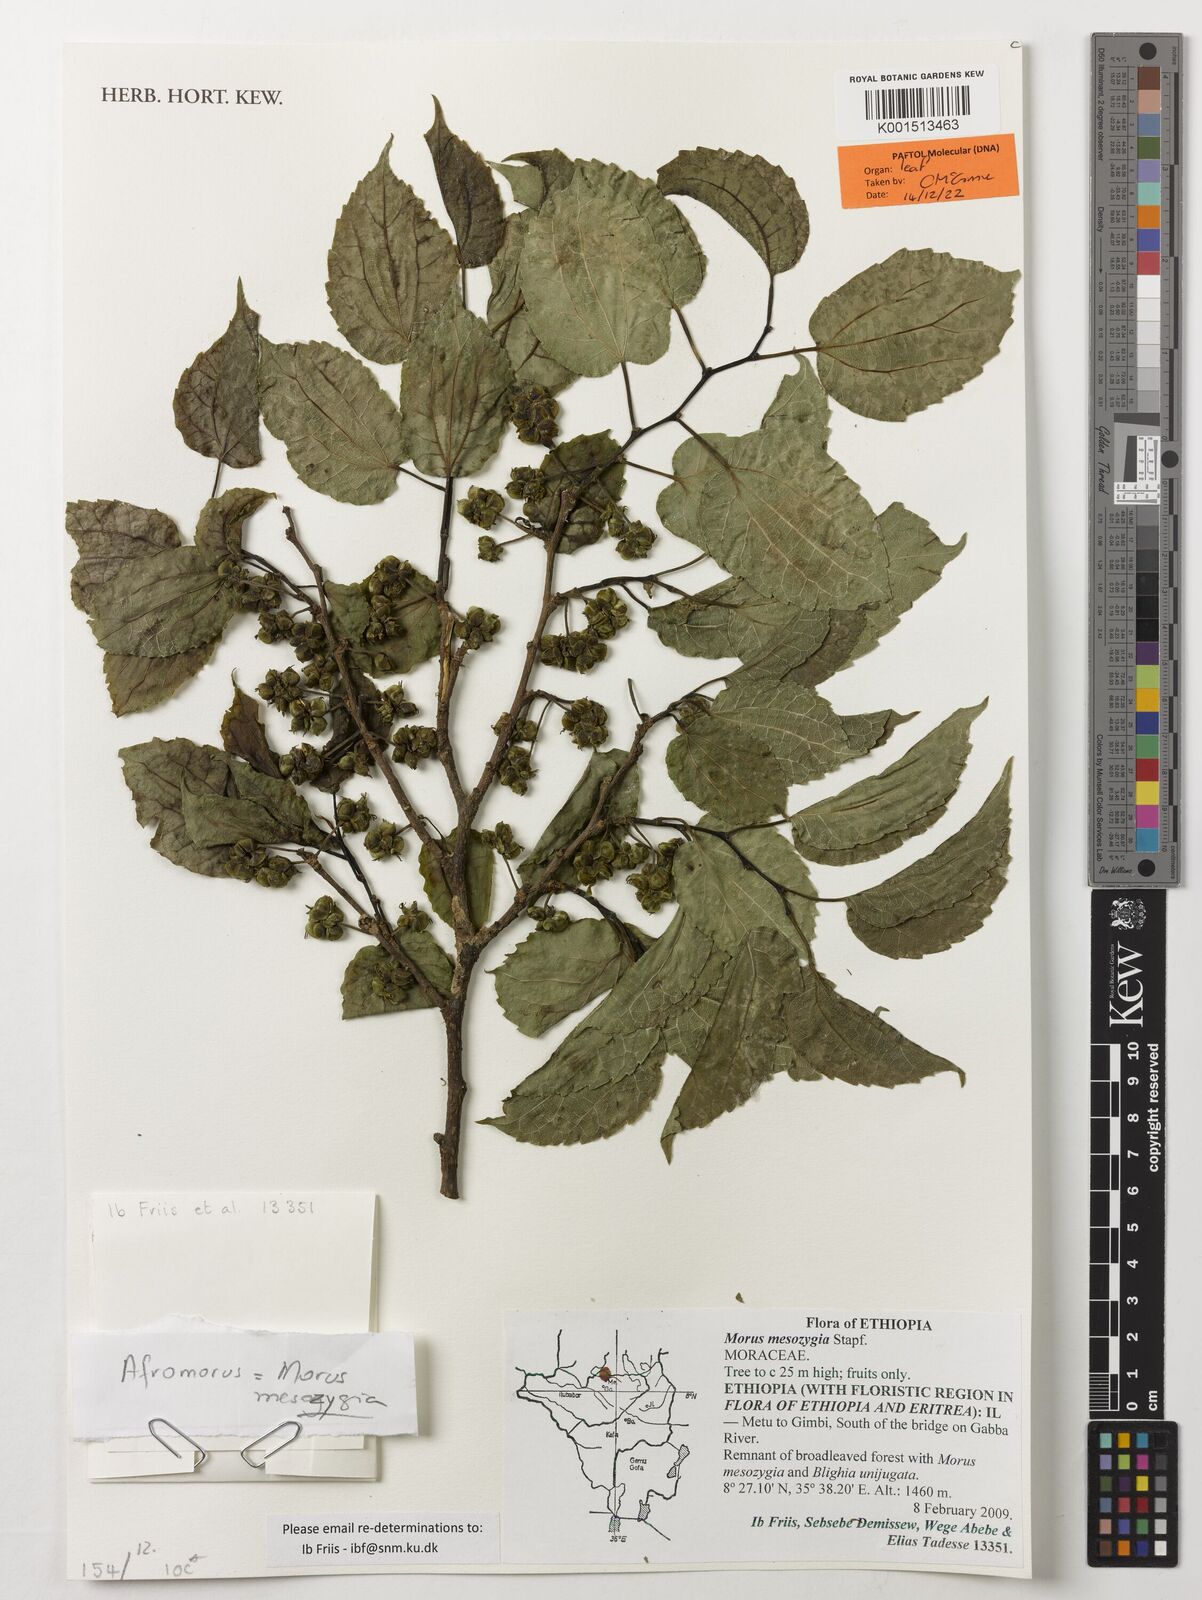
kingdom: Plantae
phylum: Tracheophyta
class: Magnoliopsida
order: Rosales
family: Moraceae
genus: Afromorus
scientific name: Afromorus mesozygia
